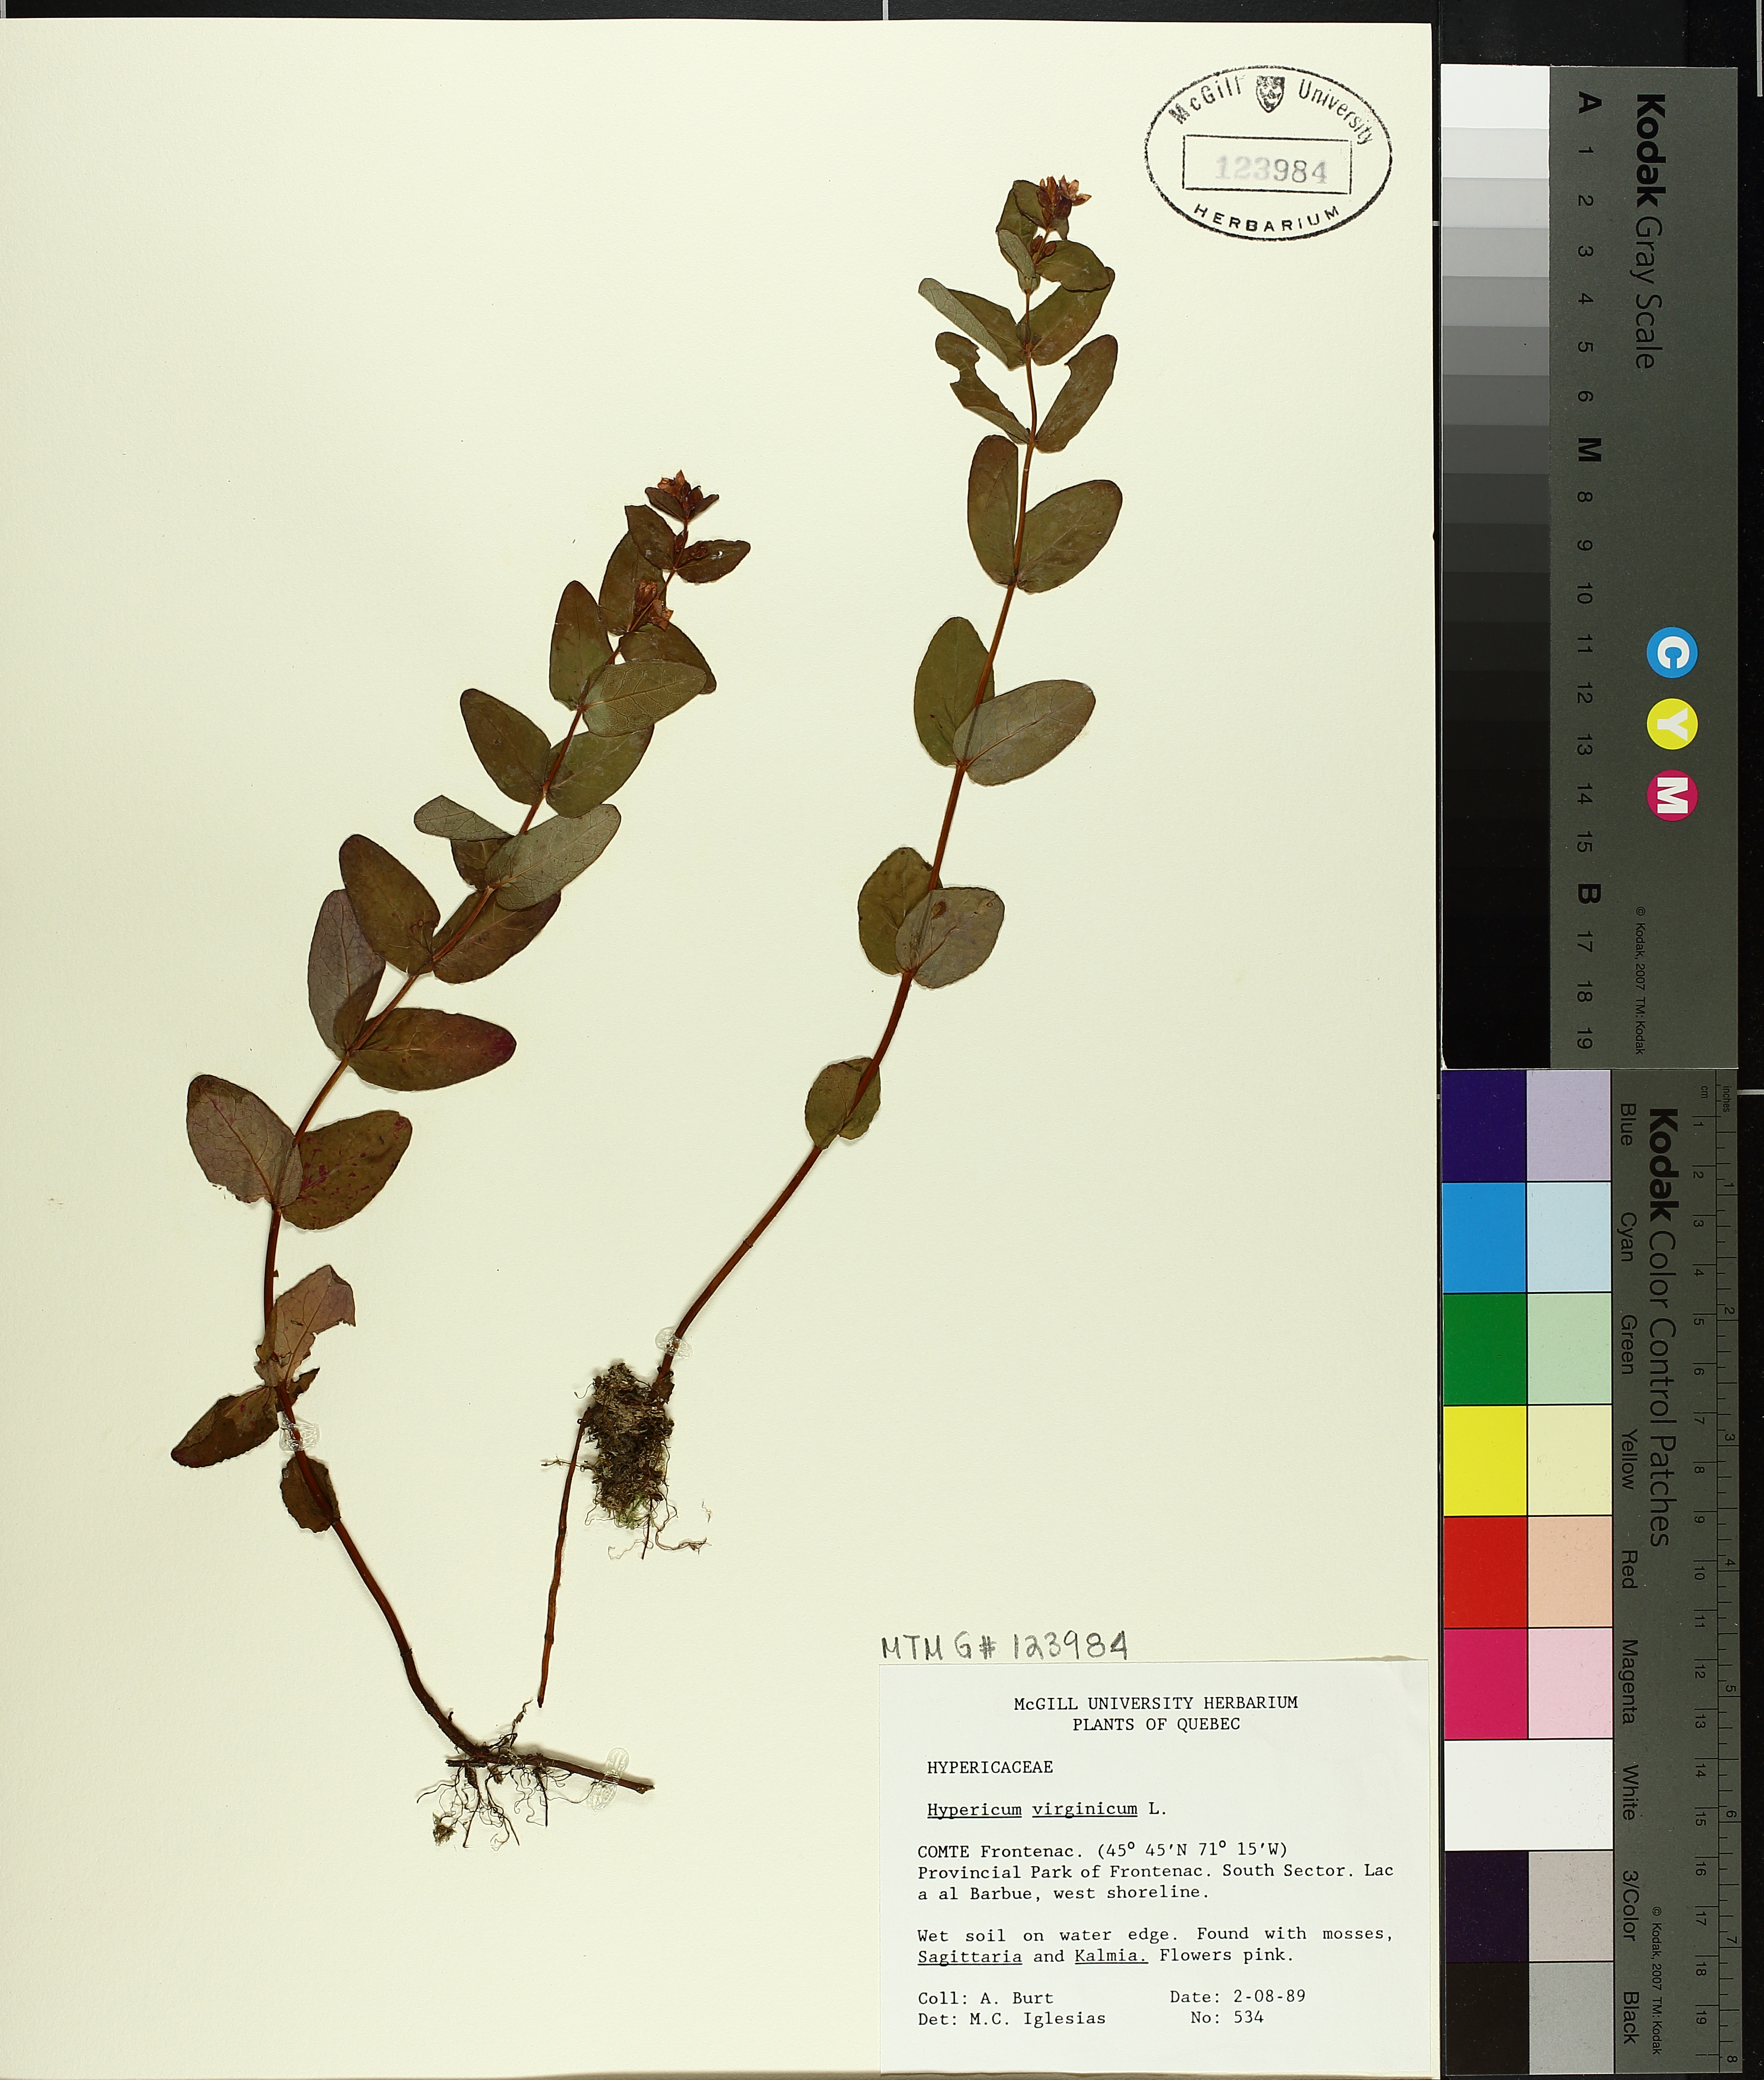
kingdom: Plantae
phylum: Tracheophyta
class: Magnoliopsida
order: Malpighiales
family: Hypericaceae
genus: Triadenum
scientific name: Triadenum virginicum
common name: Marsh st. john's-wort
